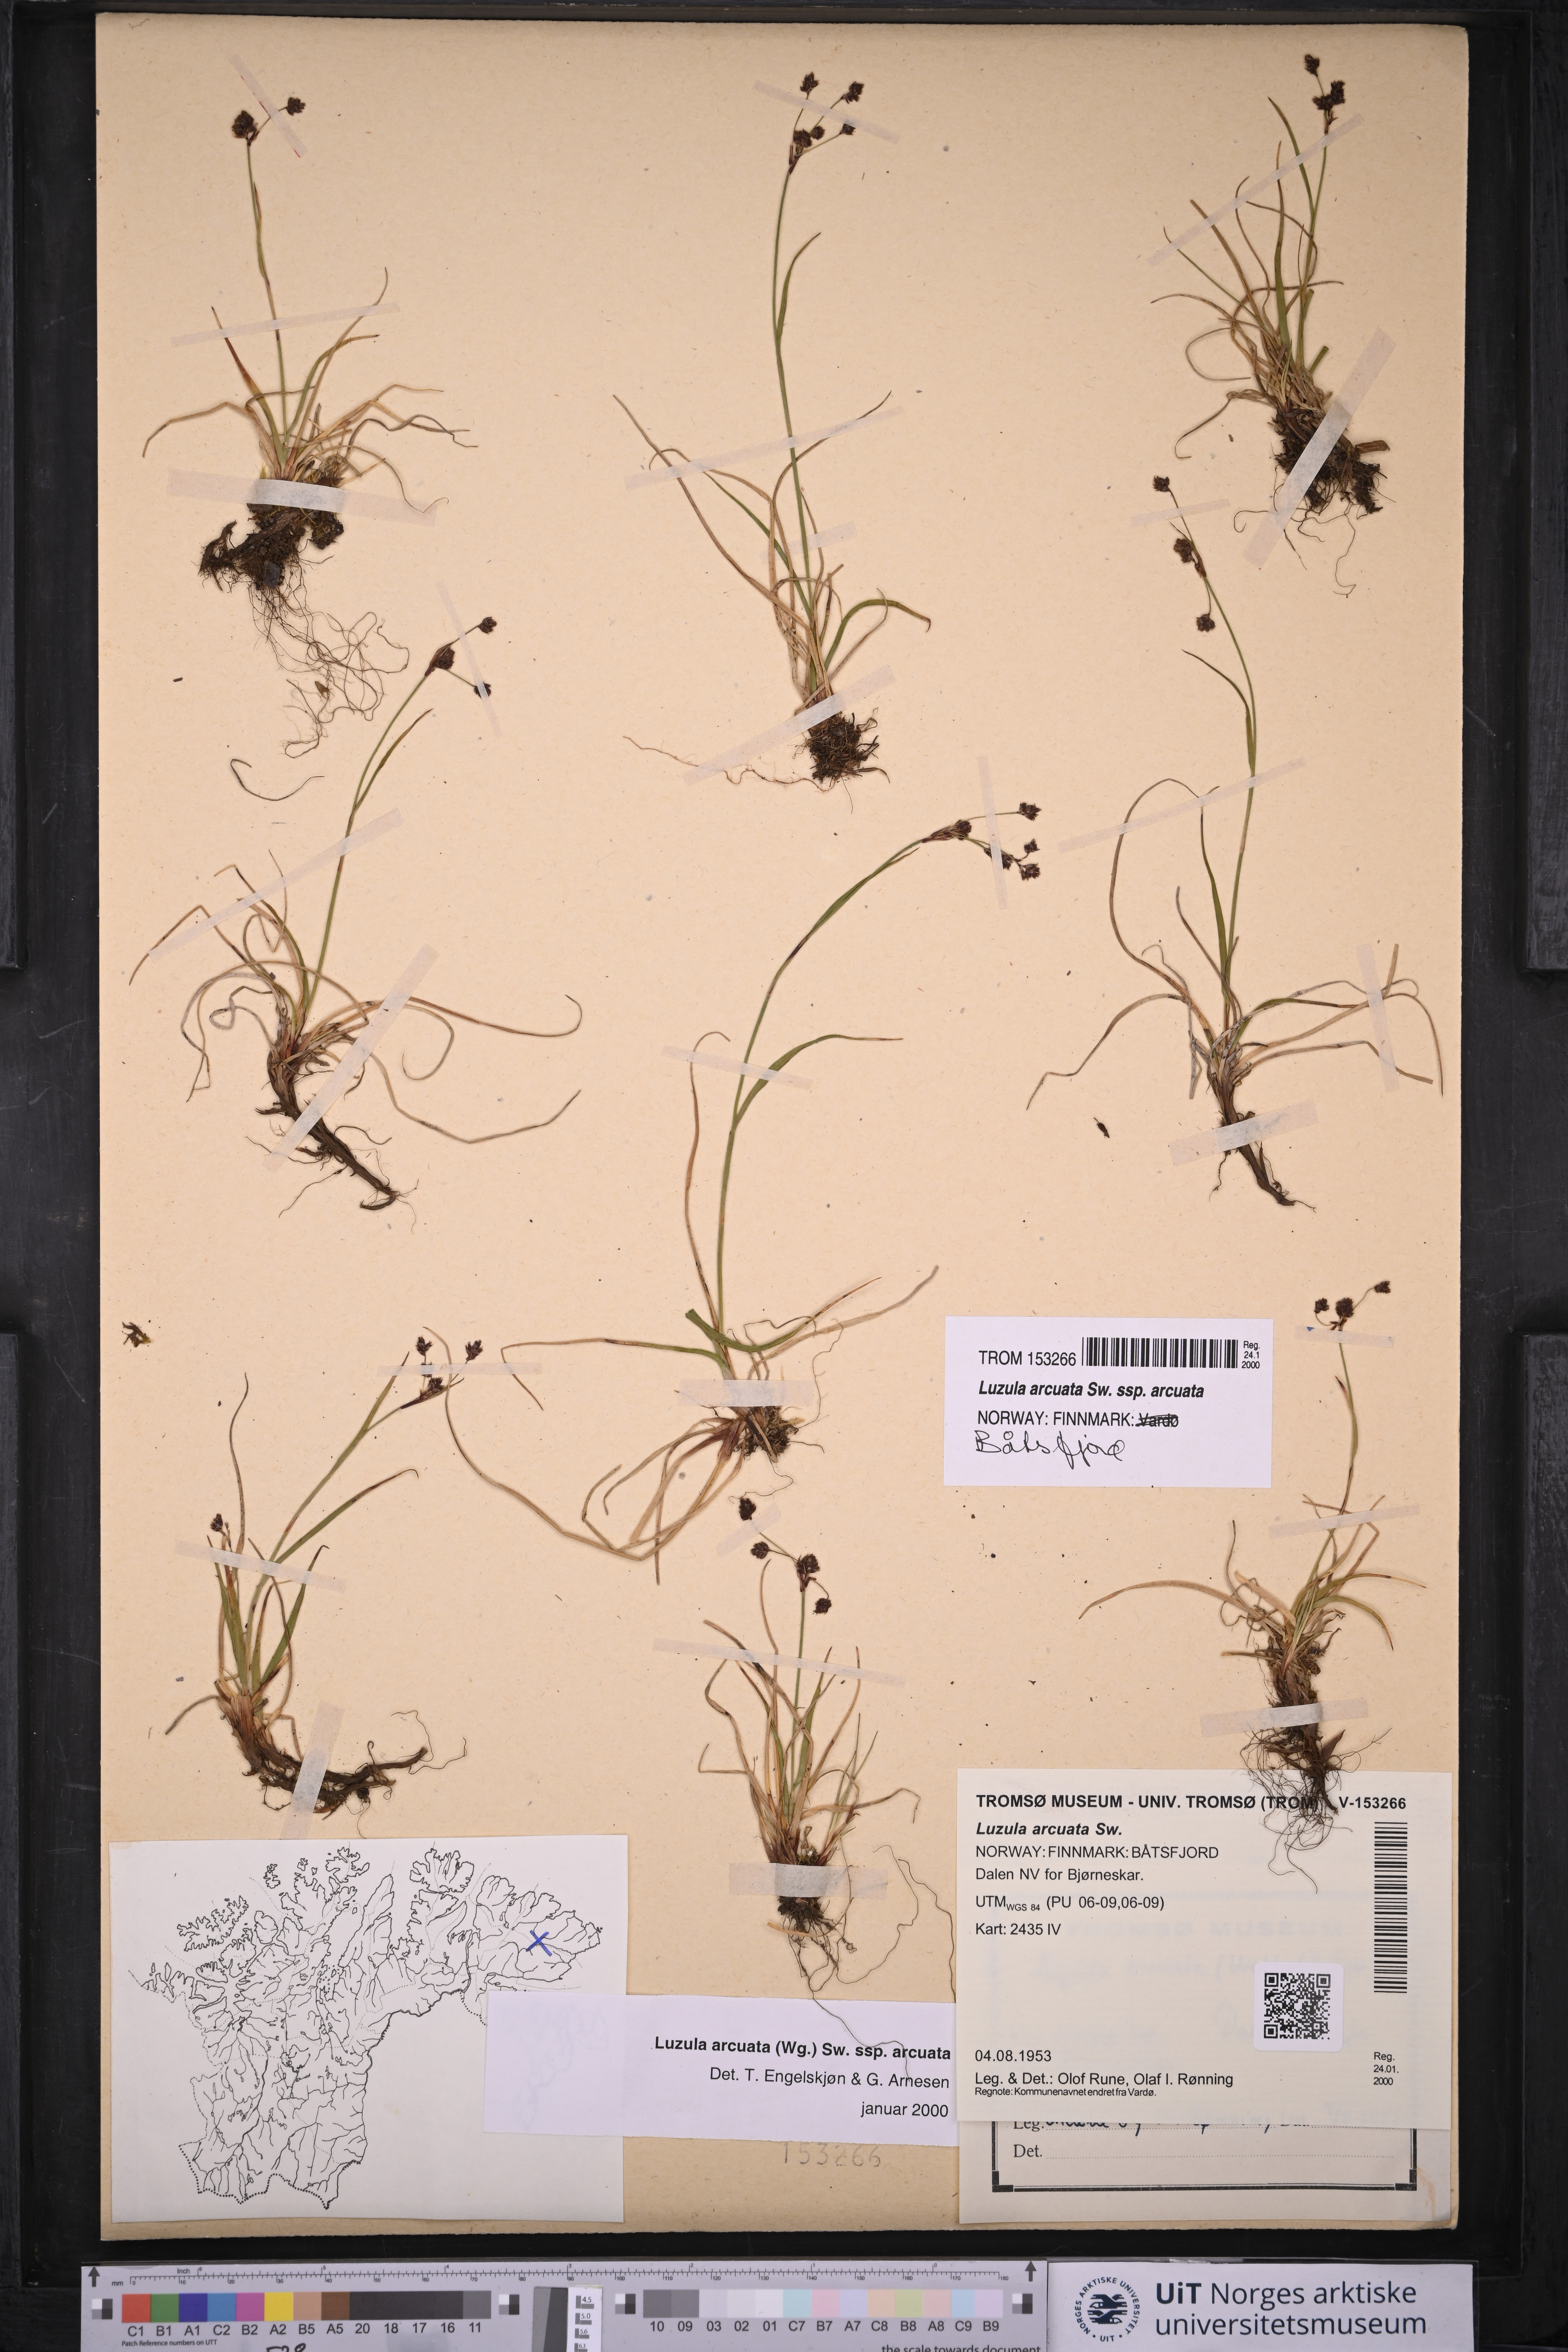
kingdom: Plantae
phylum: Tracheophyta
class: Liliopsida
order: Poales
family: Juncaceae
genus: Luzula
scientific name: Luzula arcuata
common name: Curved wood-rush
